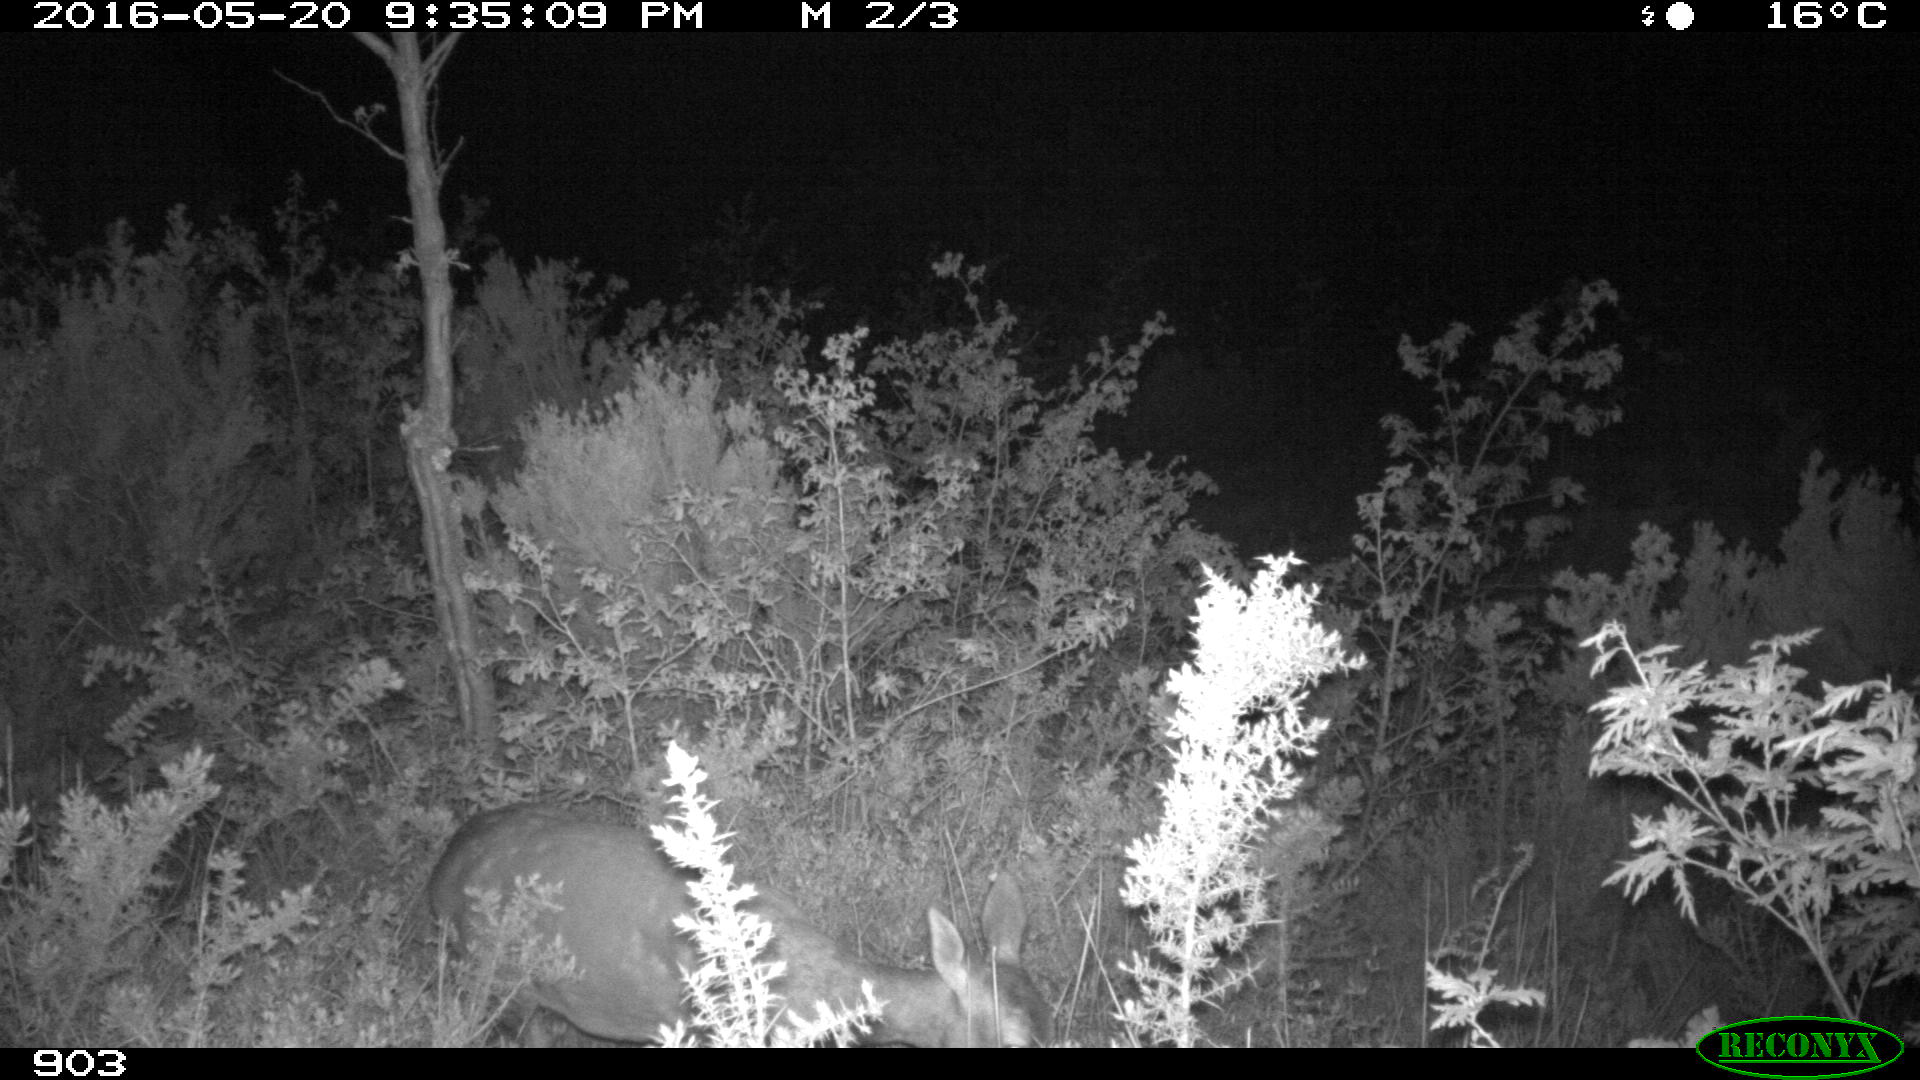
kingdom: Animalia
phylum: Chordata
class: Mammalia
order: Artiodactyla
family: Cervidae
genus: Capreolus
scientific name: Capreolus capreolus
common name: Western roe deer
